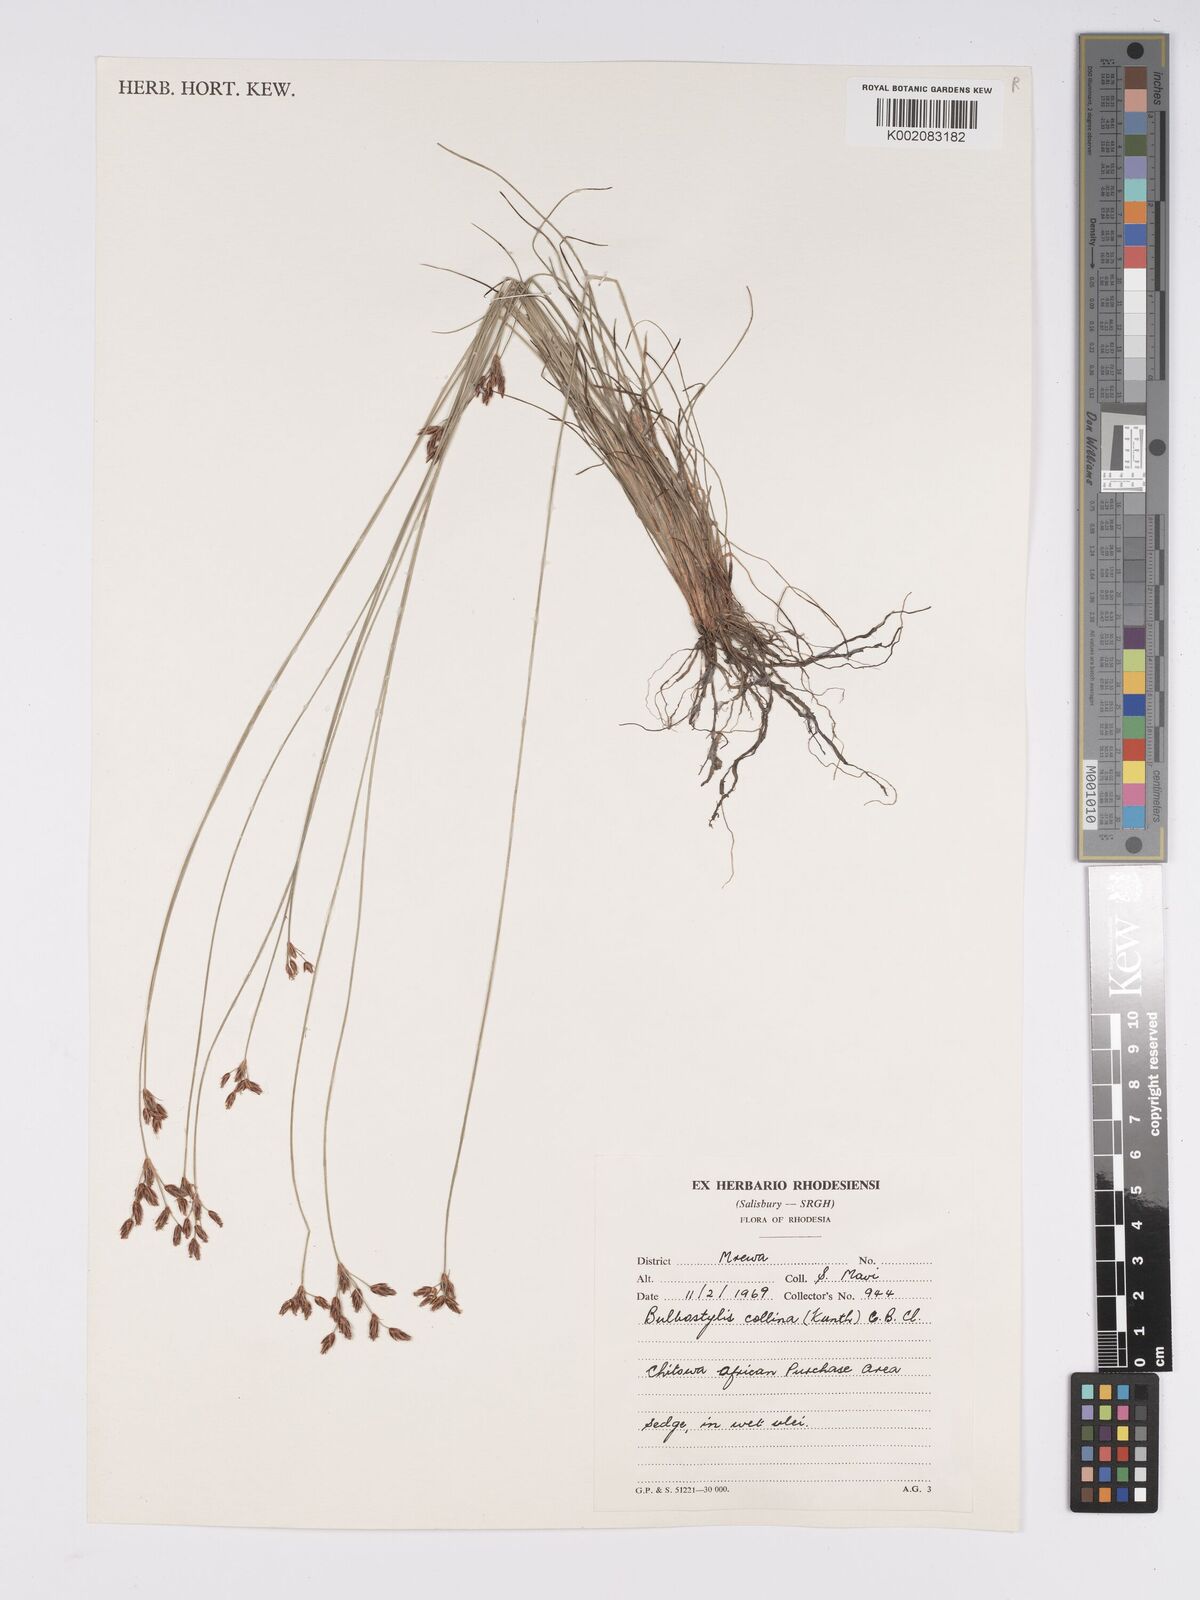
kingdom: Plantae
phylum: Tracheophyta
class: Liliopsida
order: Poales
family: Cyperaceae
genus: Bulbostylis
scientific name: Bulbostylis contexta
